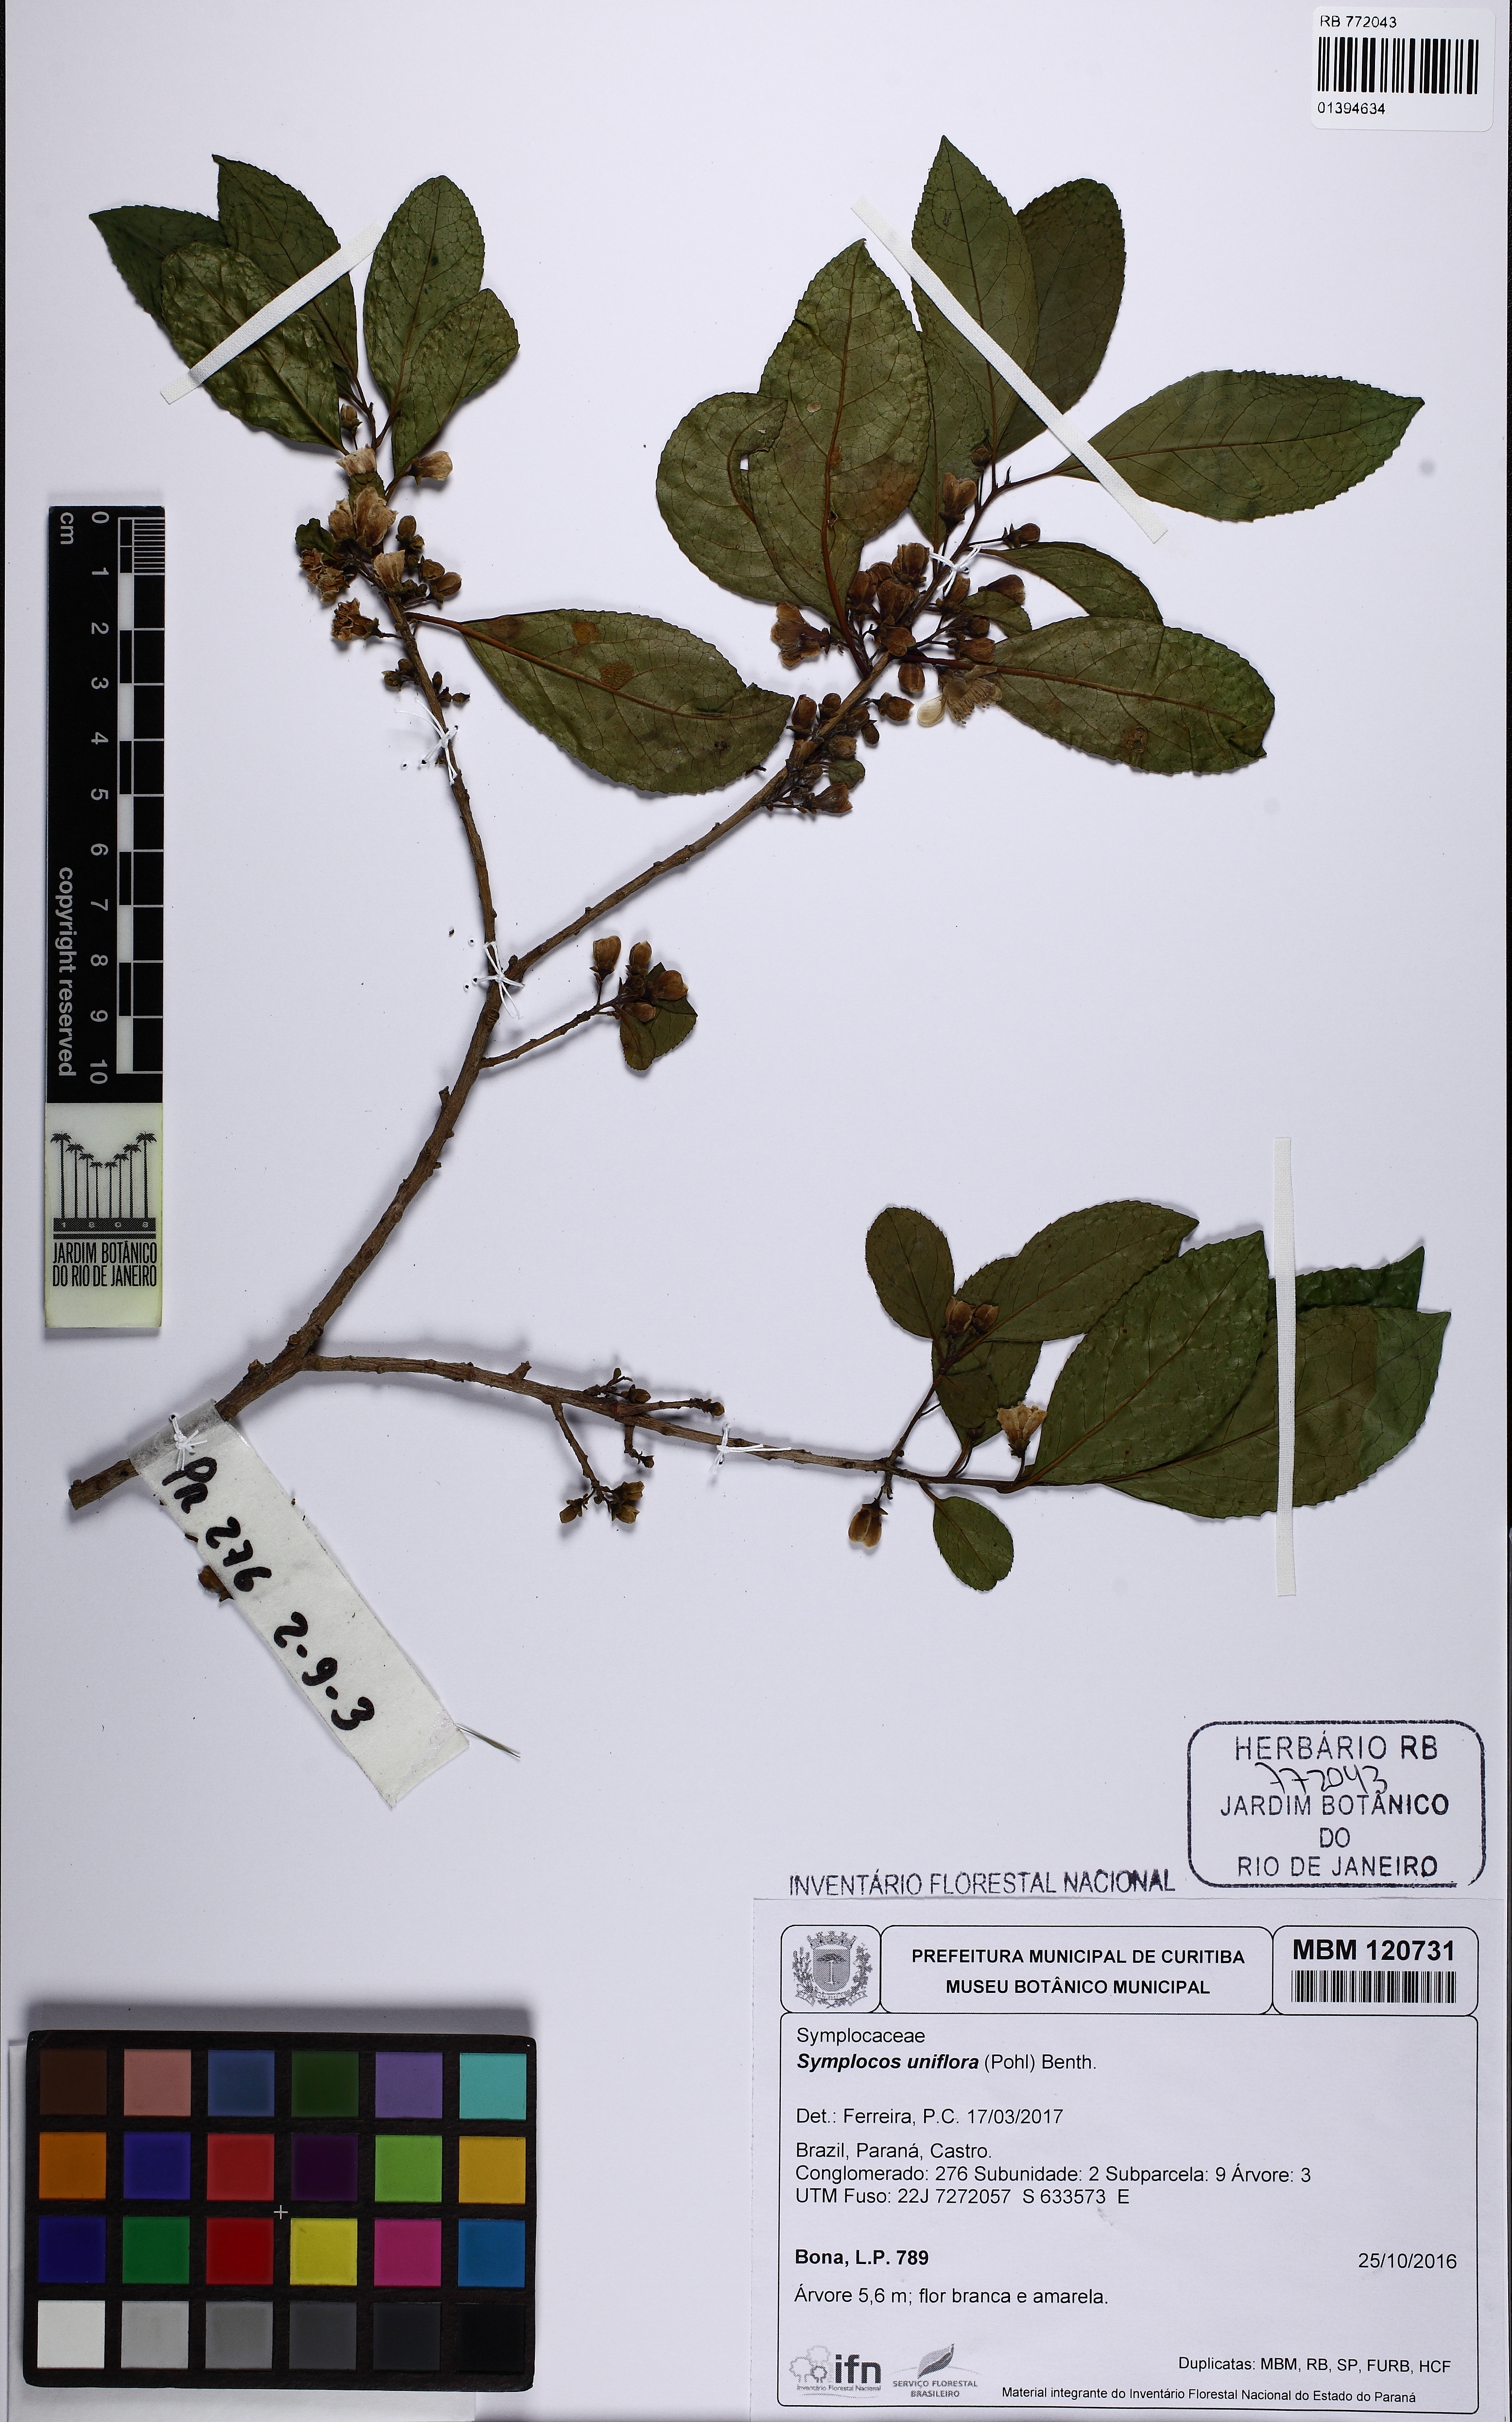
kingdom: Plantae
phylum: Tracheophyta
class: Magnoliopsida
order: Ericales
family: Symplocaceae
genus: Symplocos
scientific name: Symplocos uniflora
